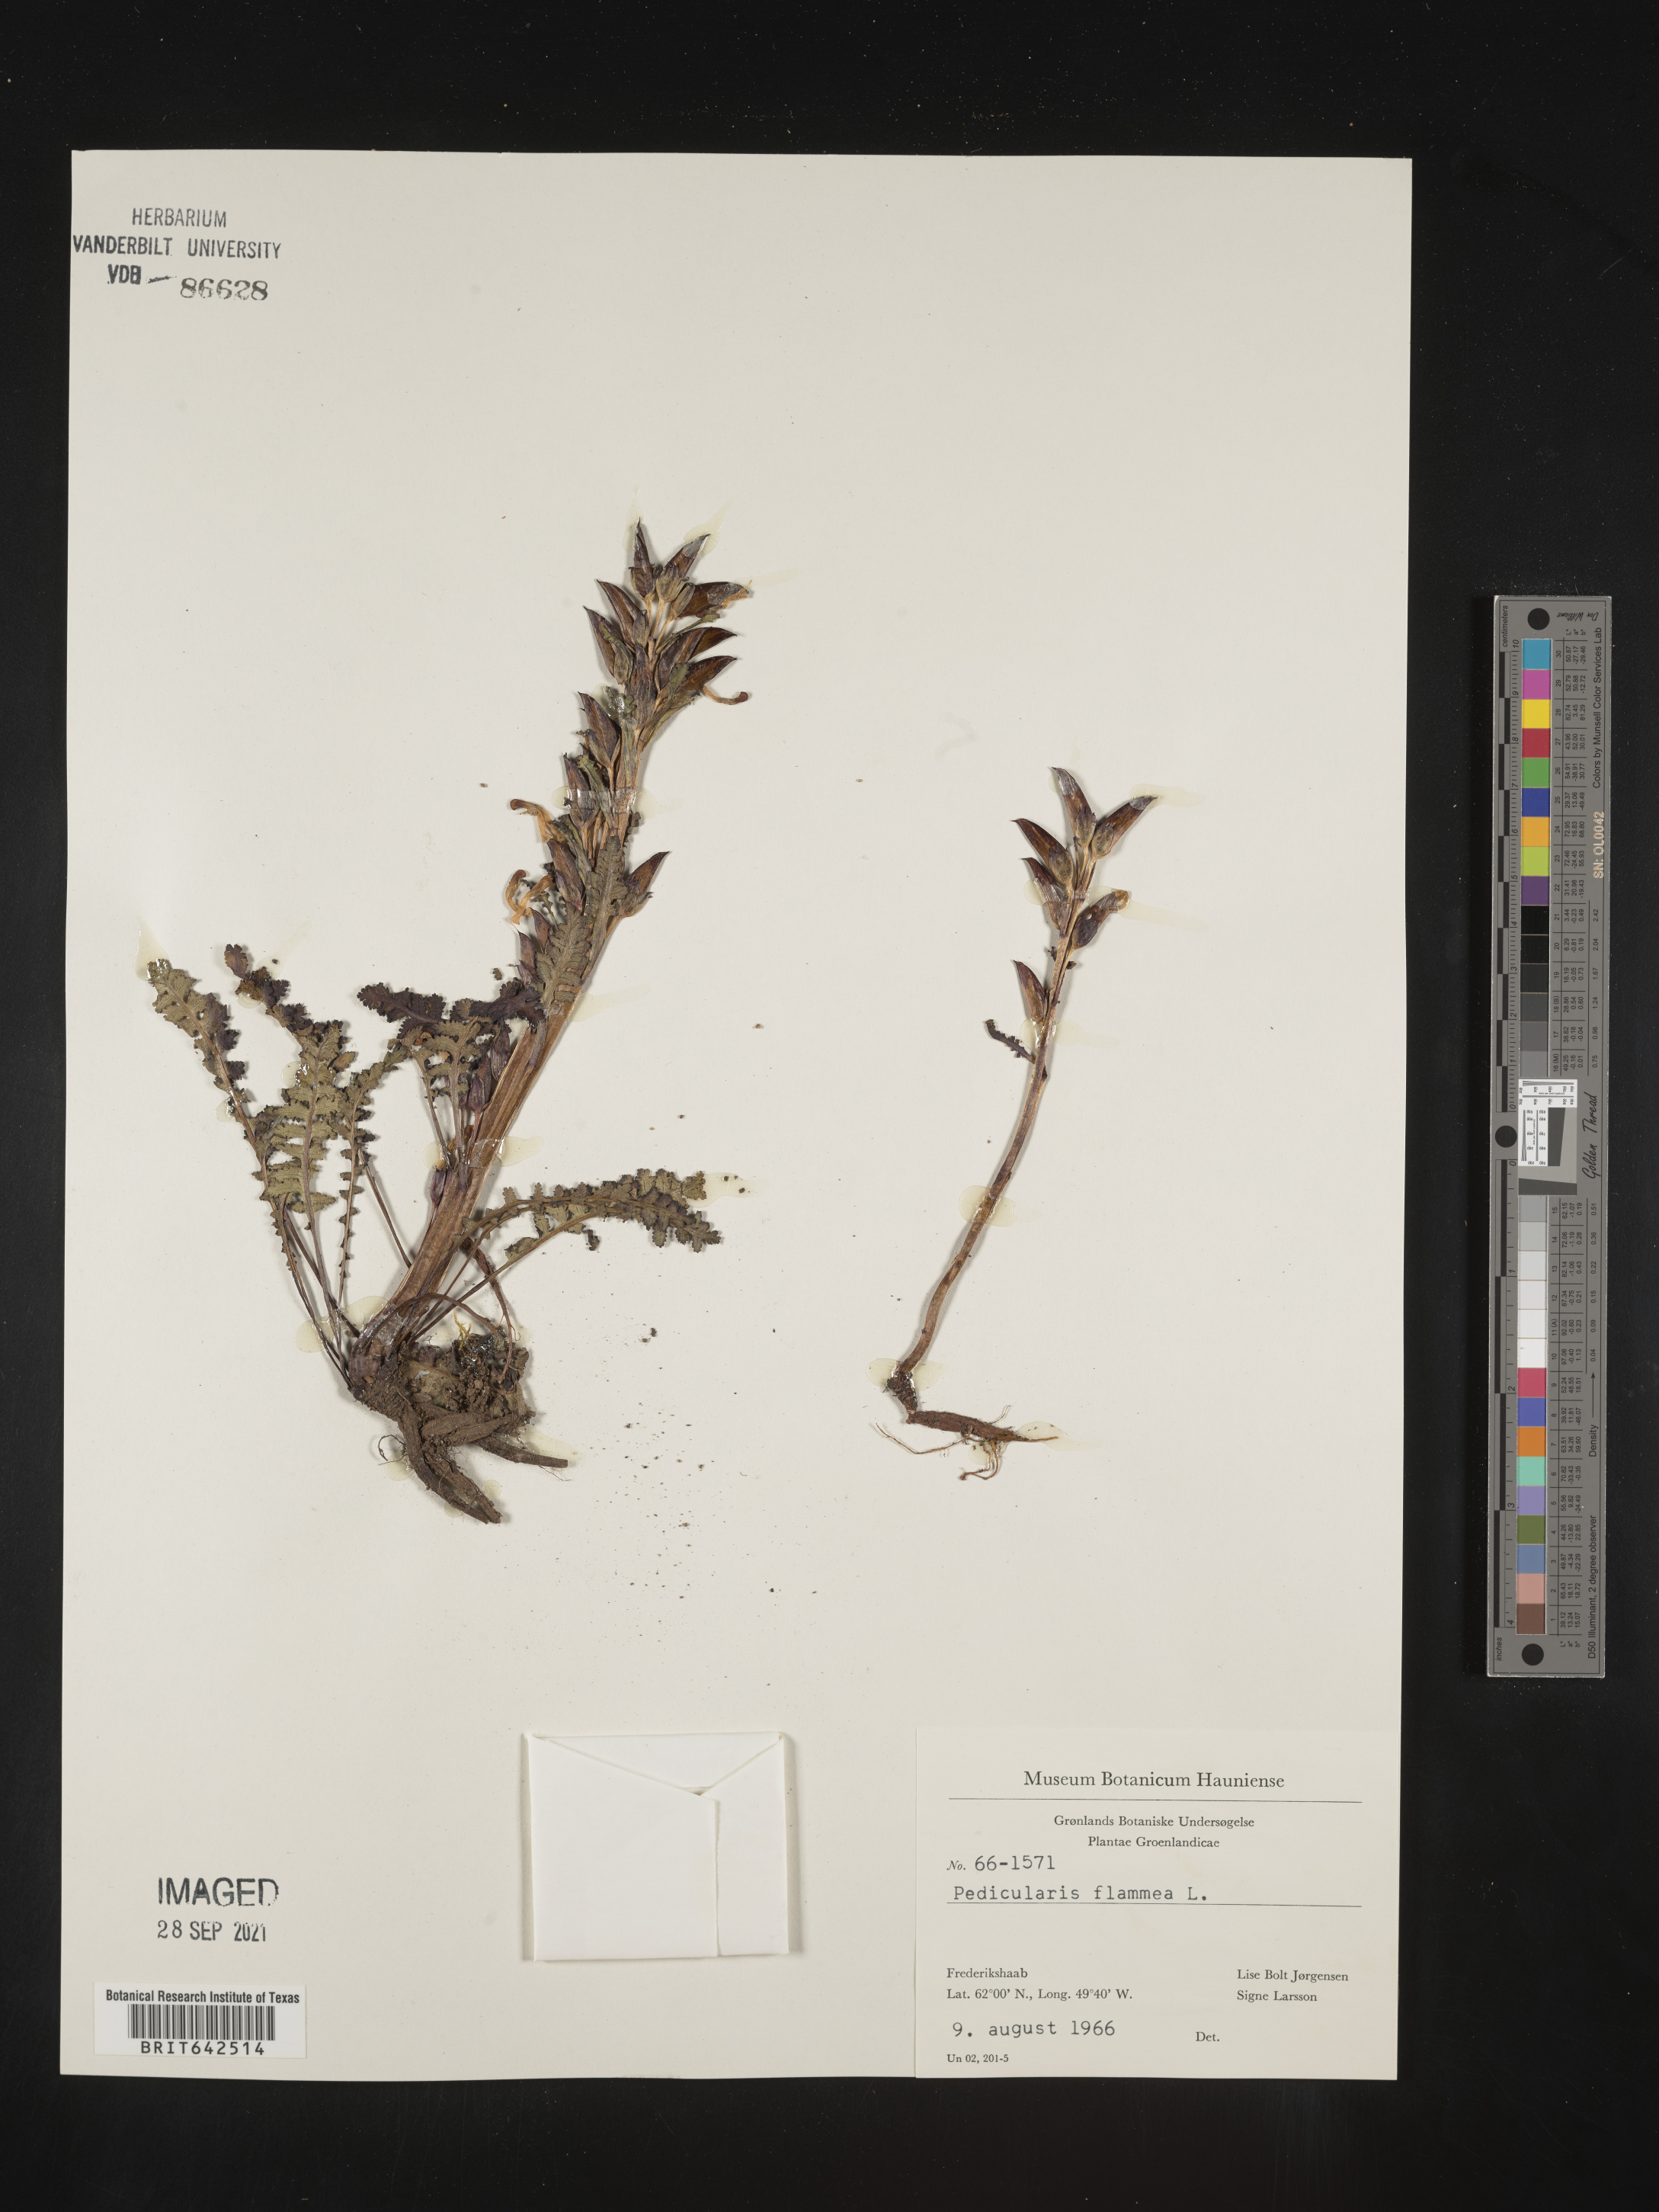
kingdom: Plantae
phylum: Tracheophyta
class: Magnoliopsida
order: Lamiales
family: Orobanchaceae
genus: Pedicularis
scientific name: Pedicularis
